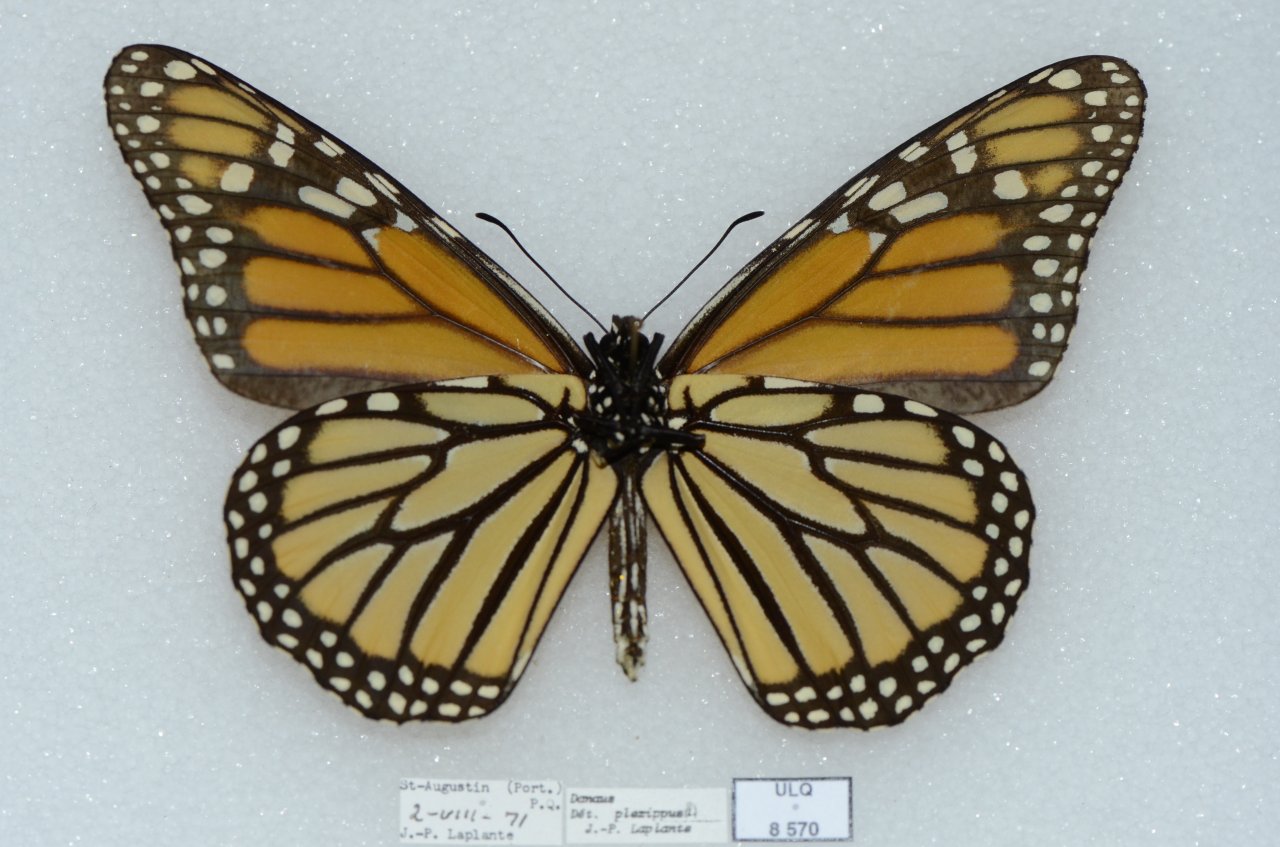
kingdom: Animalia
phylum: Arthropoda
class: Insecta
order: Lepidoptera
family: Nymphalidae
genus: Danaus
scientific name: Danaus plexippus
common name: Monarch
